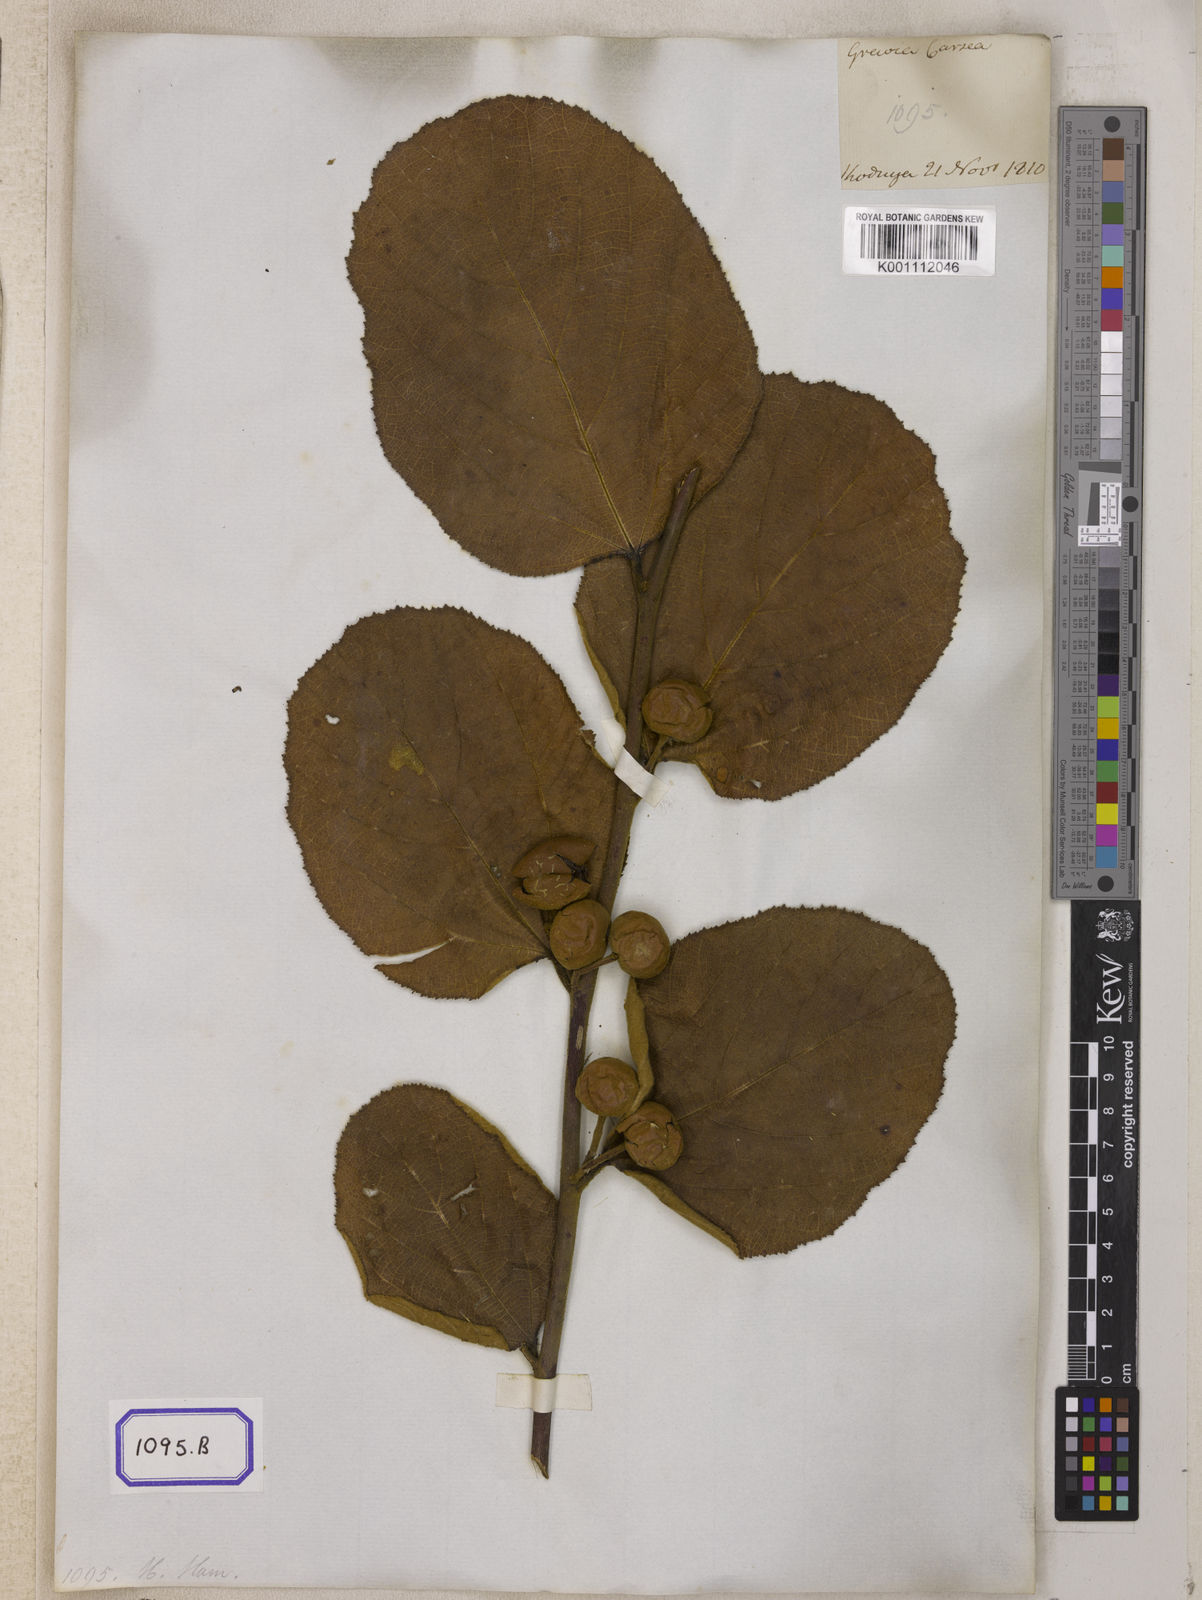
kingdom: Plantae
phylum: Tracheophyta
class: Magnoliopsida
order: Malvales
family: Malvaceae
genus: Grewia
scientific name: Grewia
